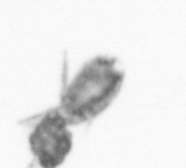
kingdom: Animalia
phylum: Arthropoda
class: Copepoda
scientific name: Copepoda
